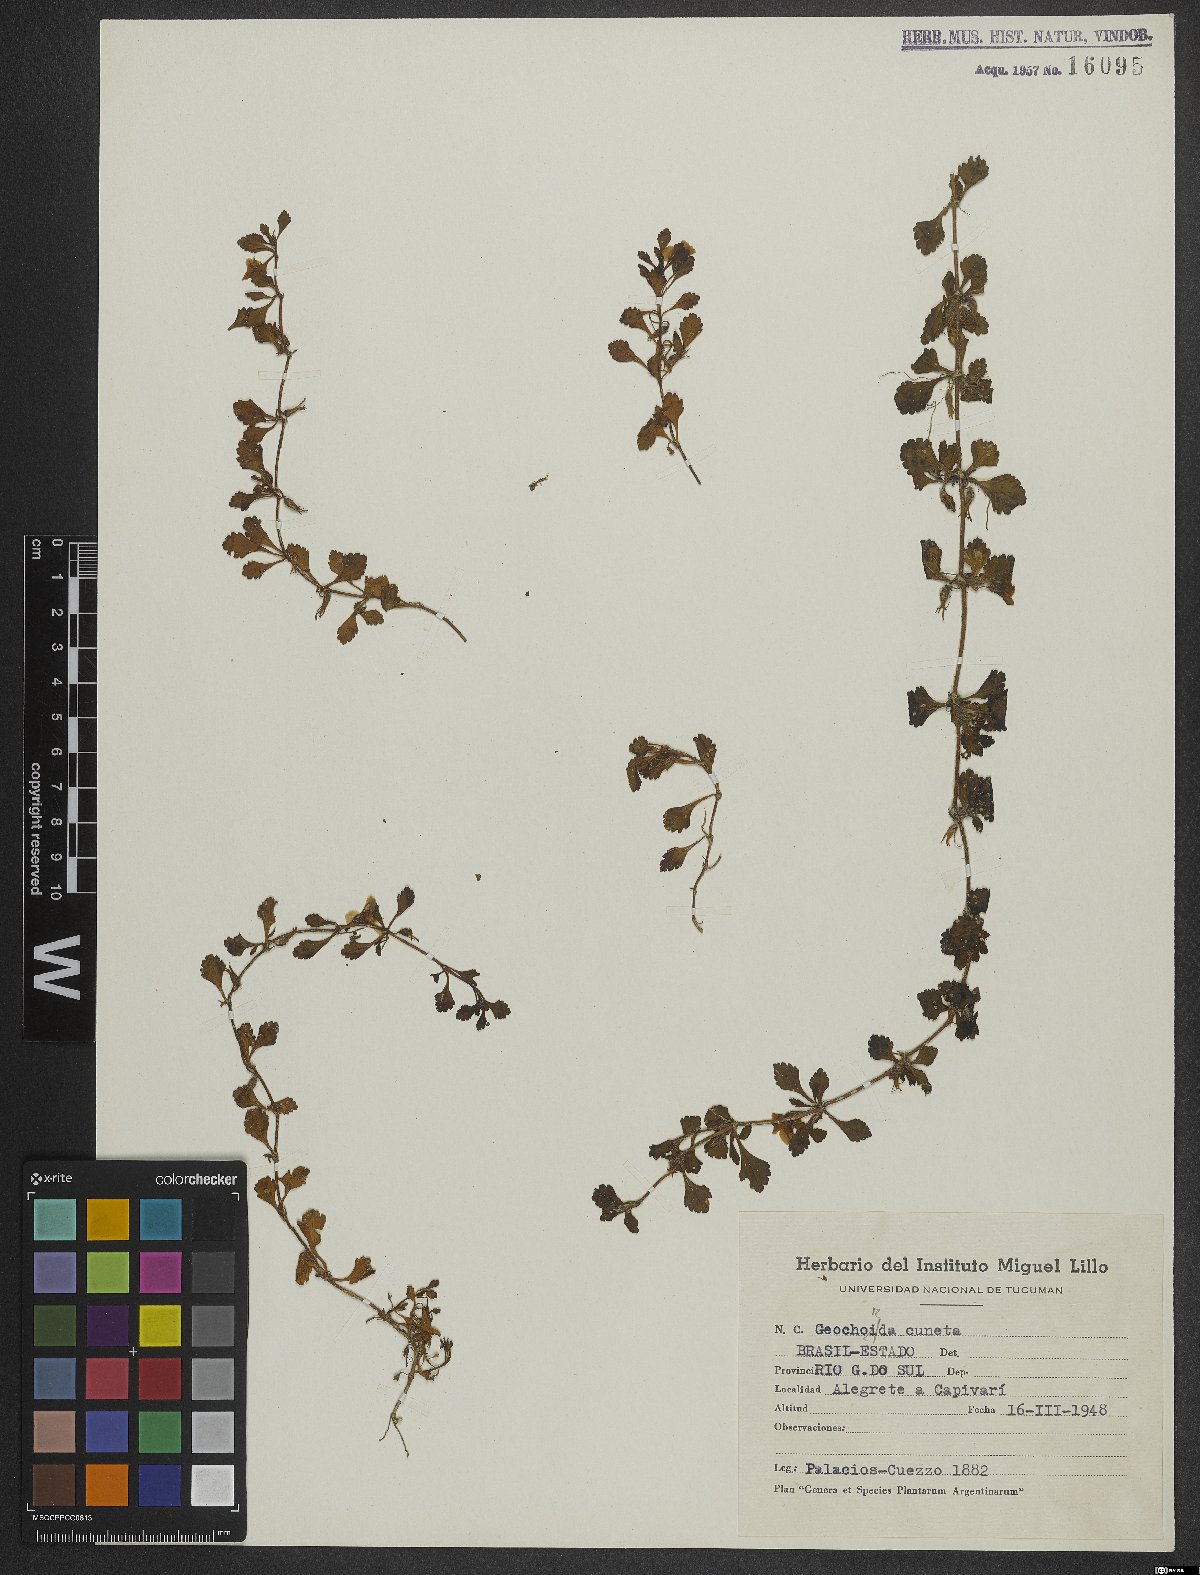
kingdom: Plantae
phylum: Tracheophyta
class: Magnoliopsida
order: Lamiales
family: Plantaginaceae
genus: Conobea
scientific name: Conobea glechomoides
